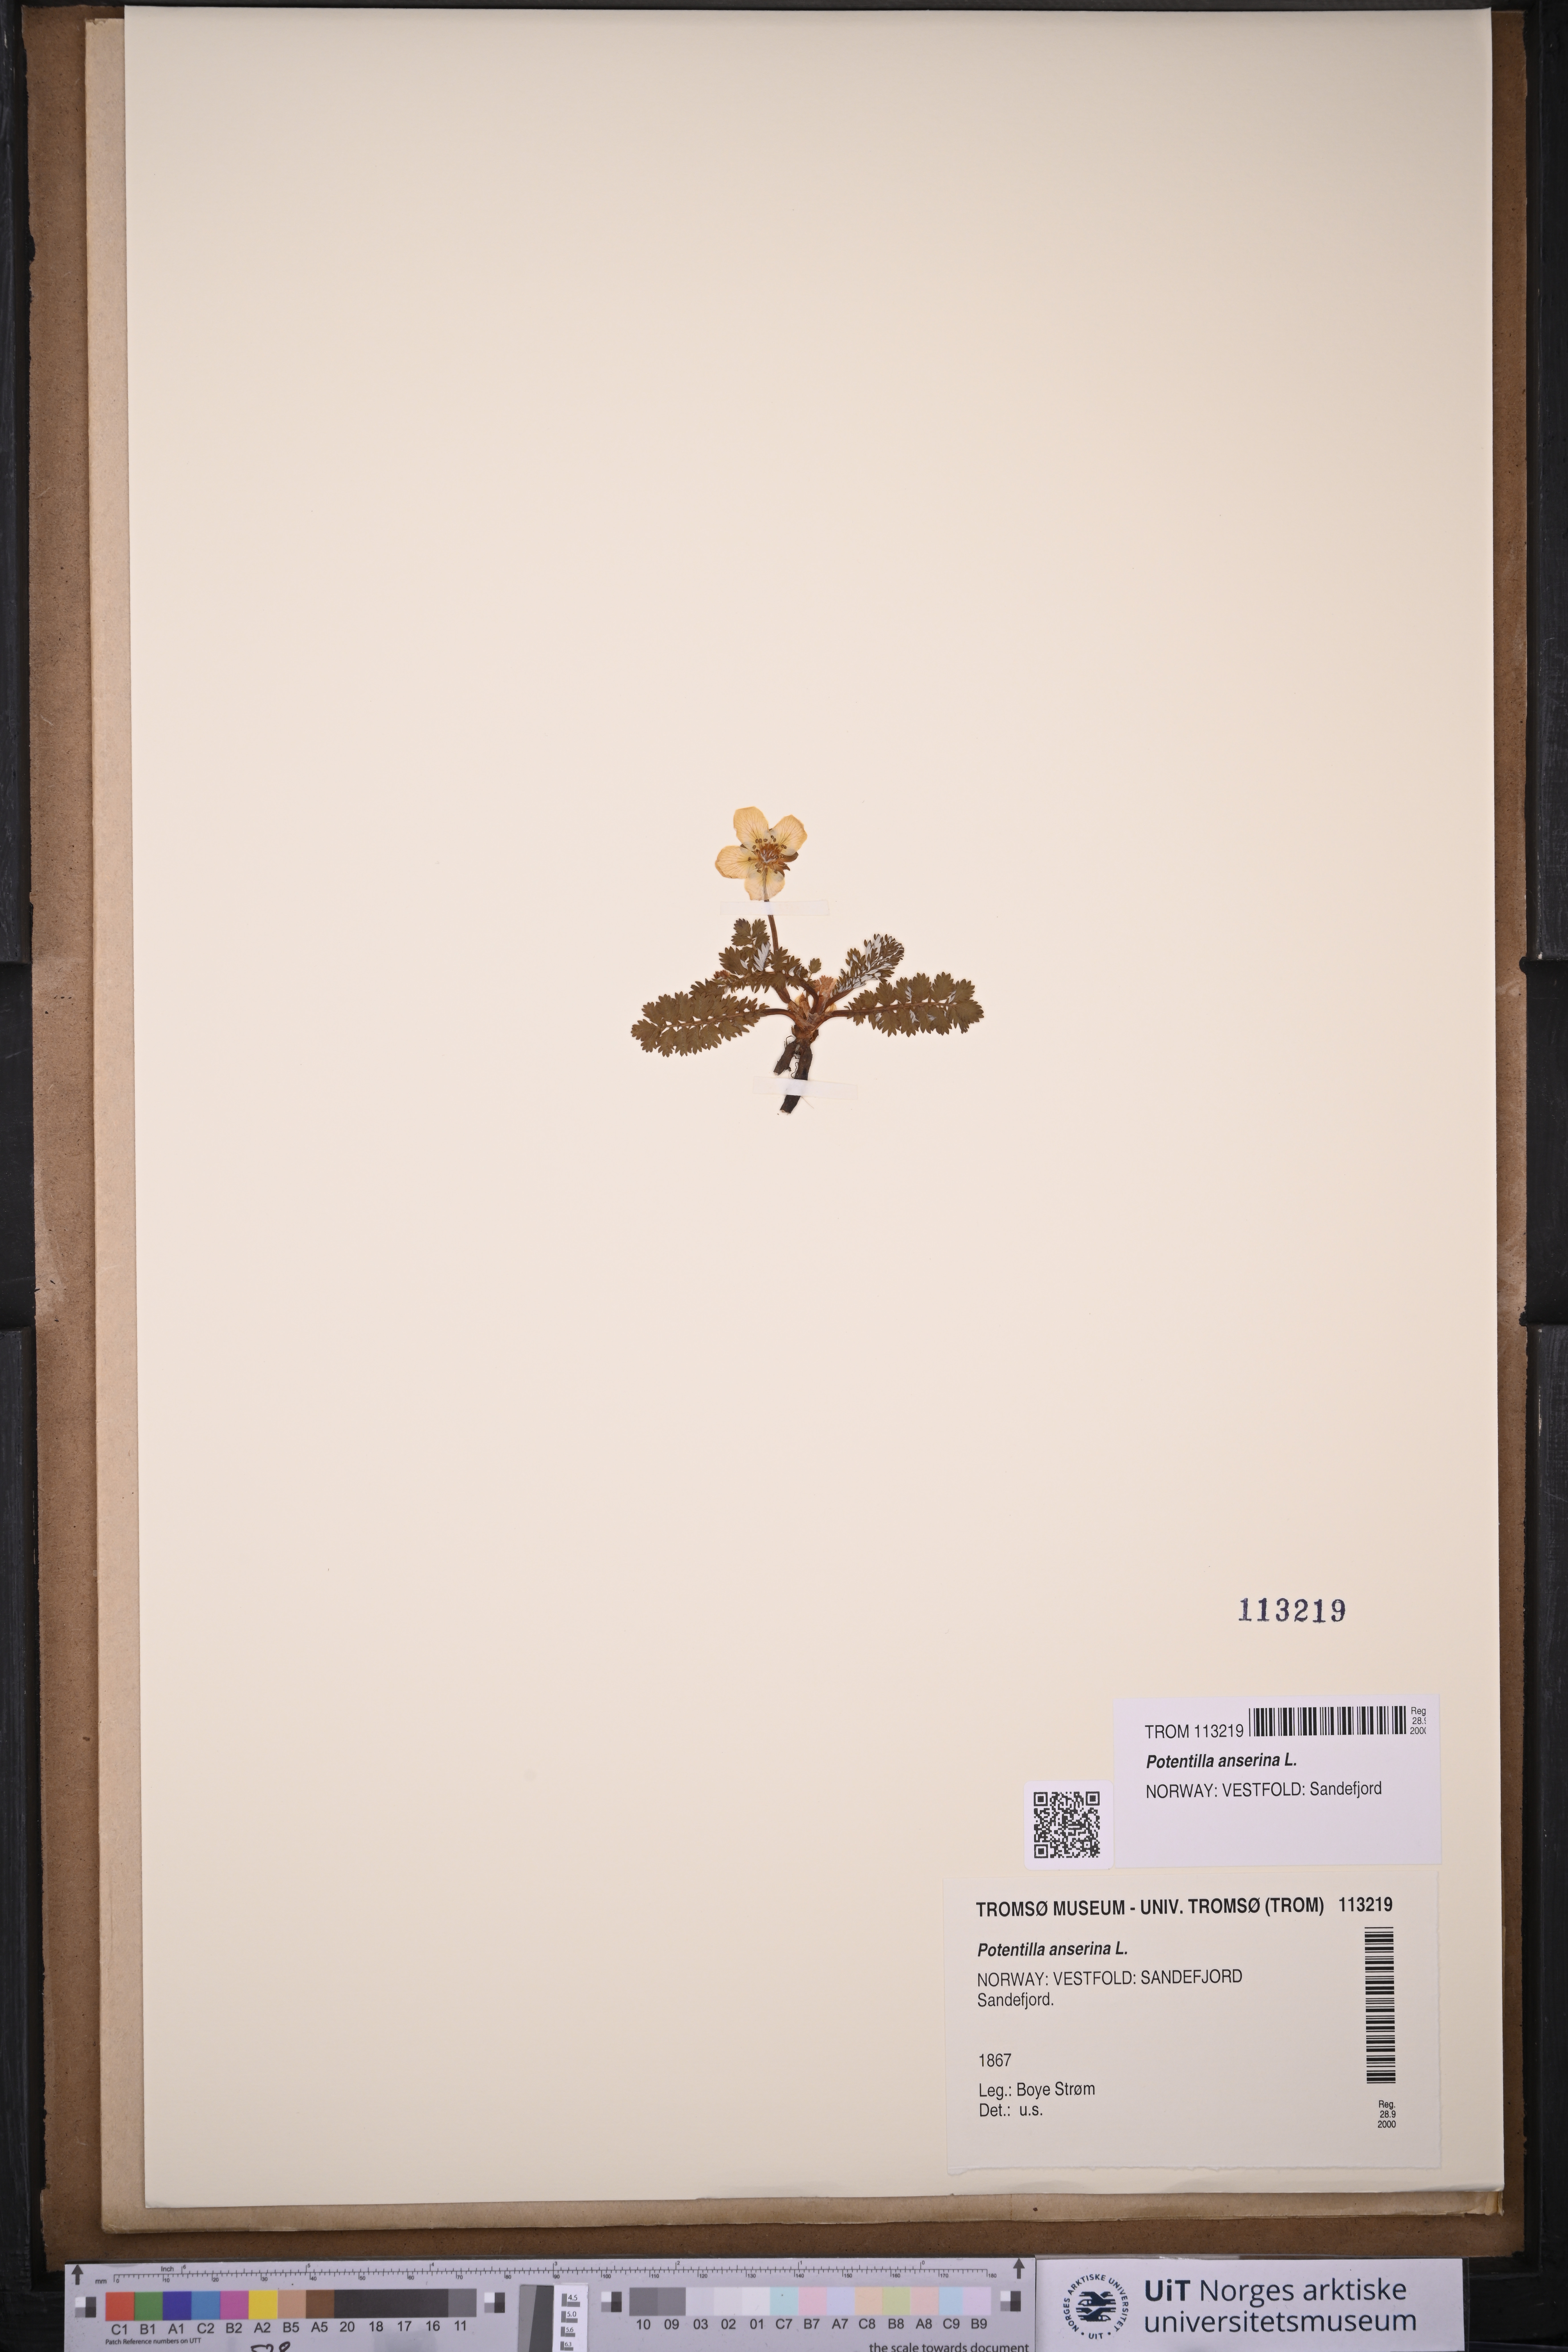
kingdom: Plantae
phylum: Tracheophyta
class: Magnoliopsida
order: Rosales
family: Rosaceae
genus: Argentina
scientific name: Argentina anserina
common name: Common silverweed
